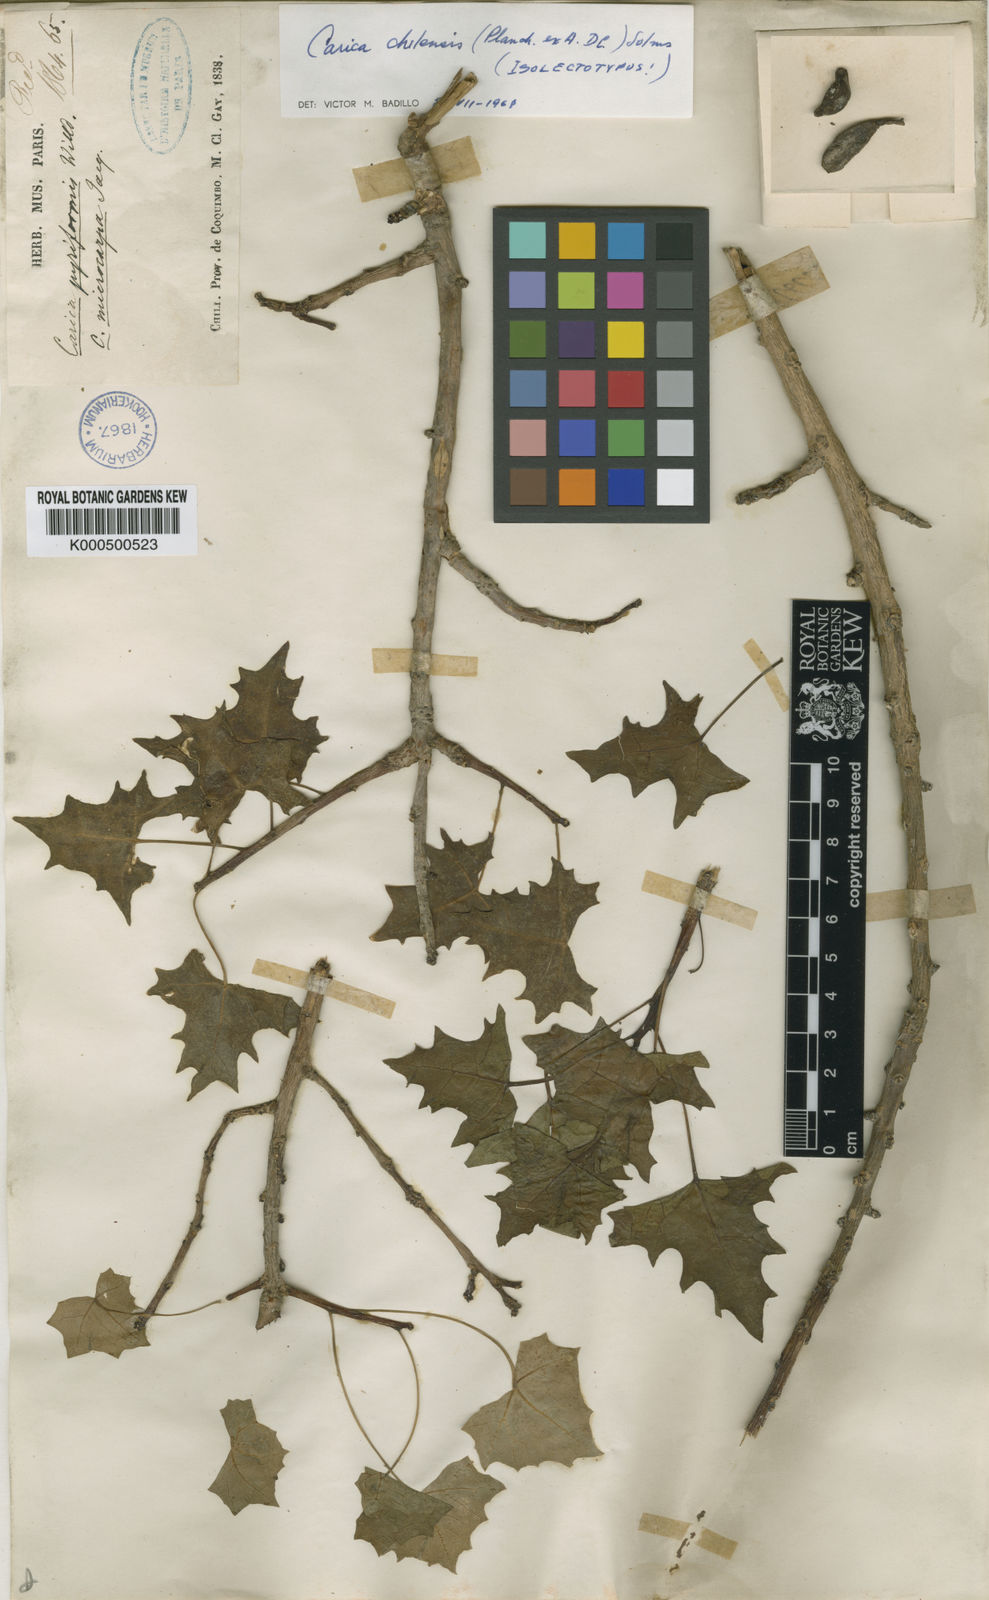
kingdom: Plantae
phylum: Tracheophyta
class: Magnoliopsida
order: Brassicales
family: Caricaceae
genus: Vasconcellea
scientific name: Vasconcellea chilensis
